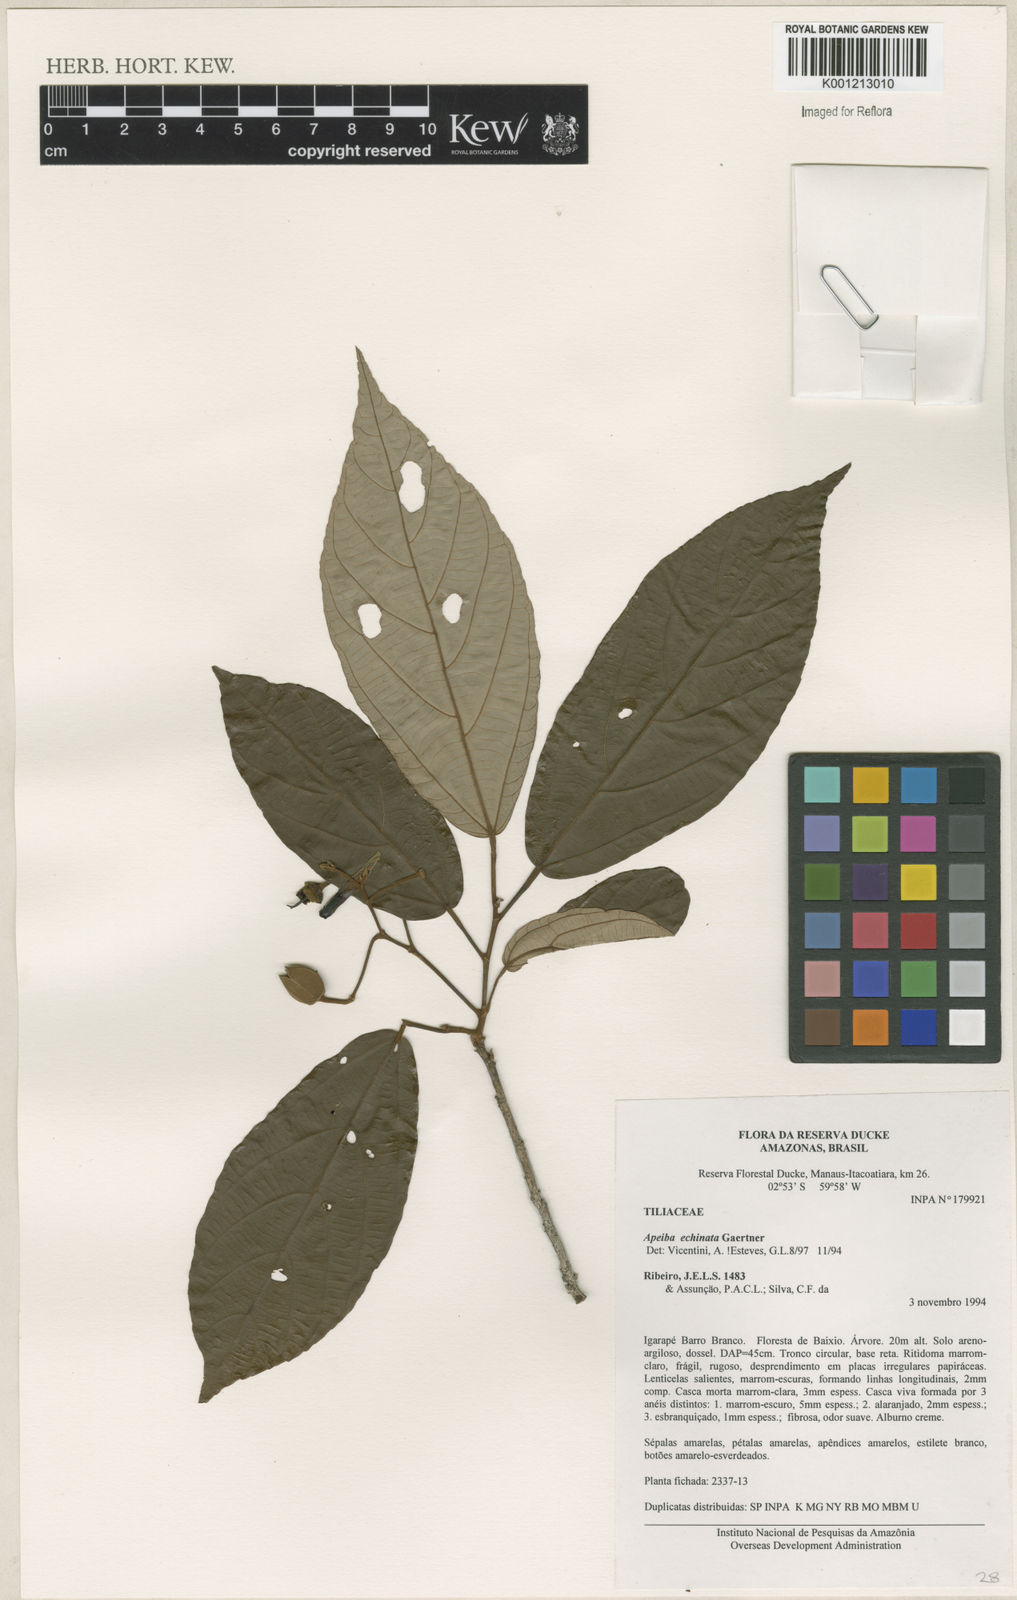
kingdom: Plantae
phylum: Tracheophyta
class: Magnoliopsida
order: Malvales
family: Malvaceae
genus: Apeiba
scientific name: Apeiba
